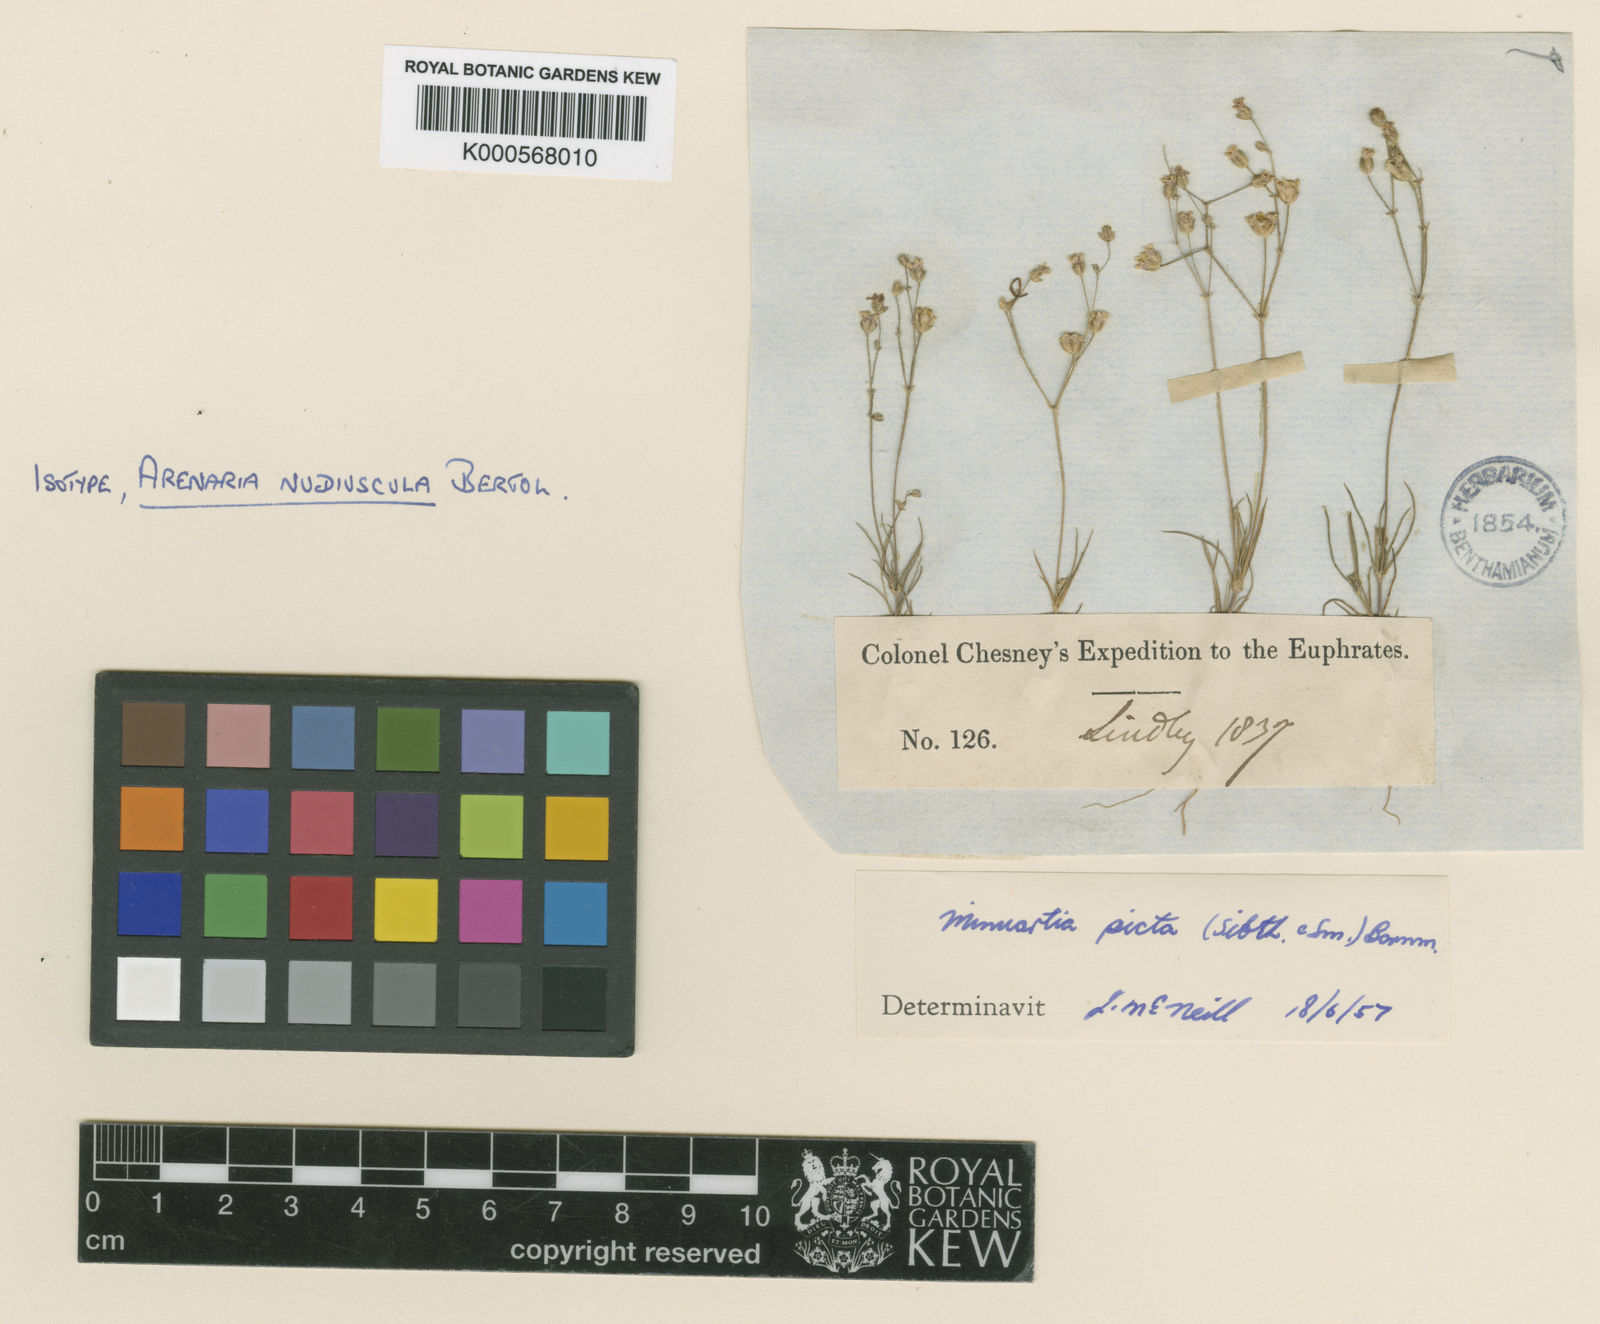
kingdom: Plantae
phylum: Tracheophyta
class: Magnoliopsida
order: Caryophyllales
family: Caryophyllaceae
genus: Eremogone
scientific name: Eremogone picta
